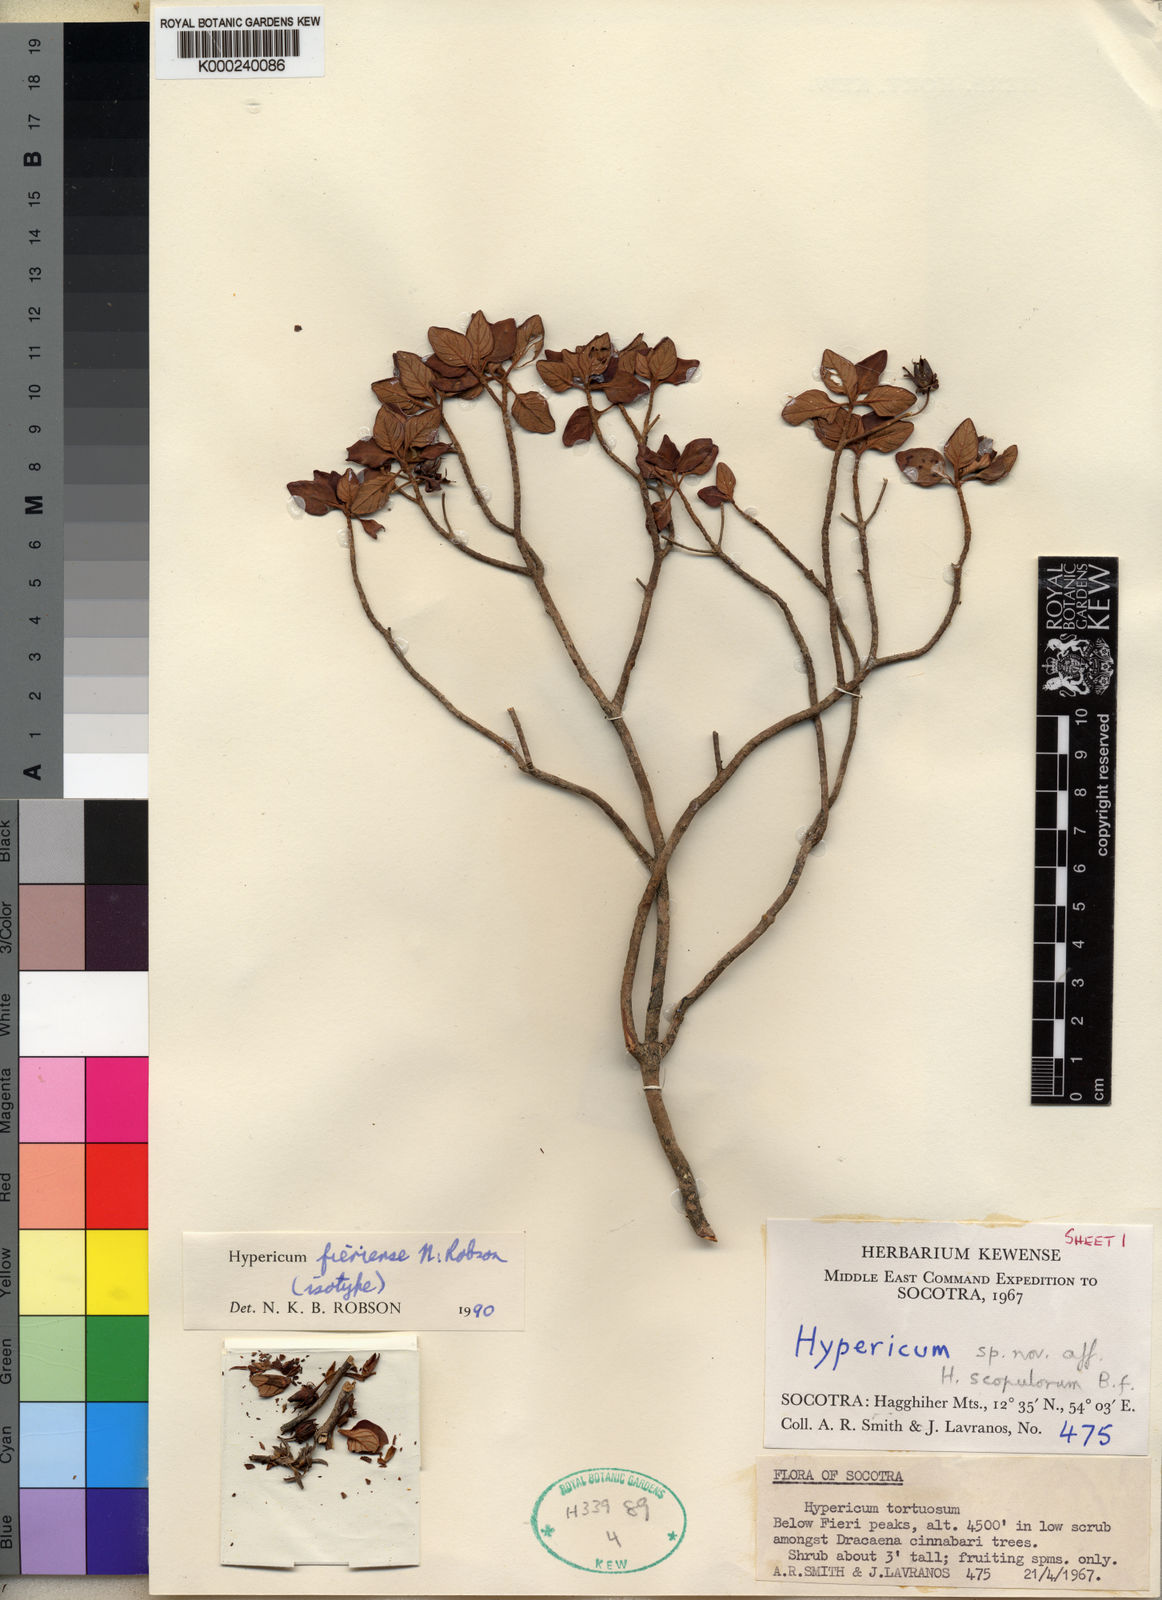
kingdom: Plantae
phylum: Tracheophyta
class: Magnoliopsida
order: Malpighiales
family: Hypericaceae
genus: Hypericum
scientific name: Hypericum fieriense
